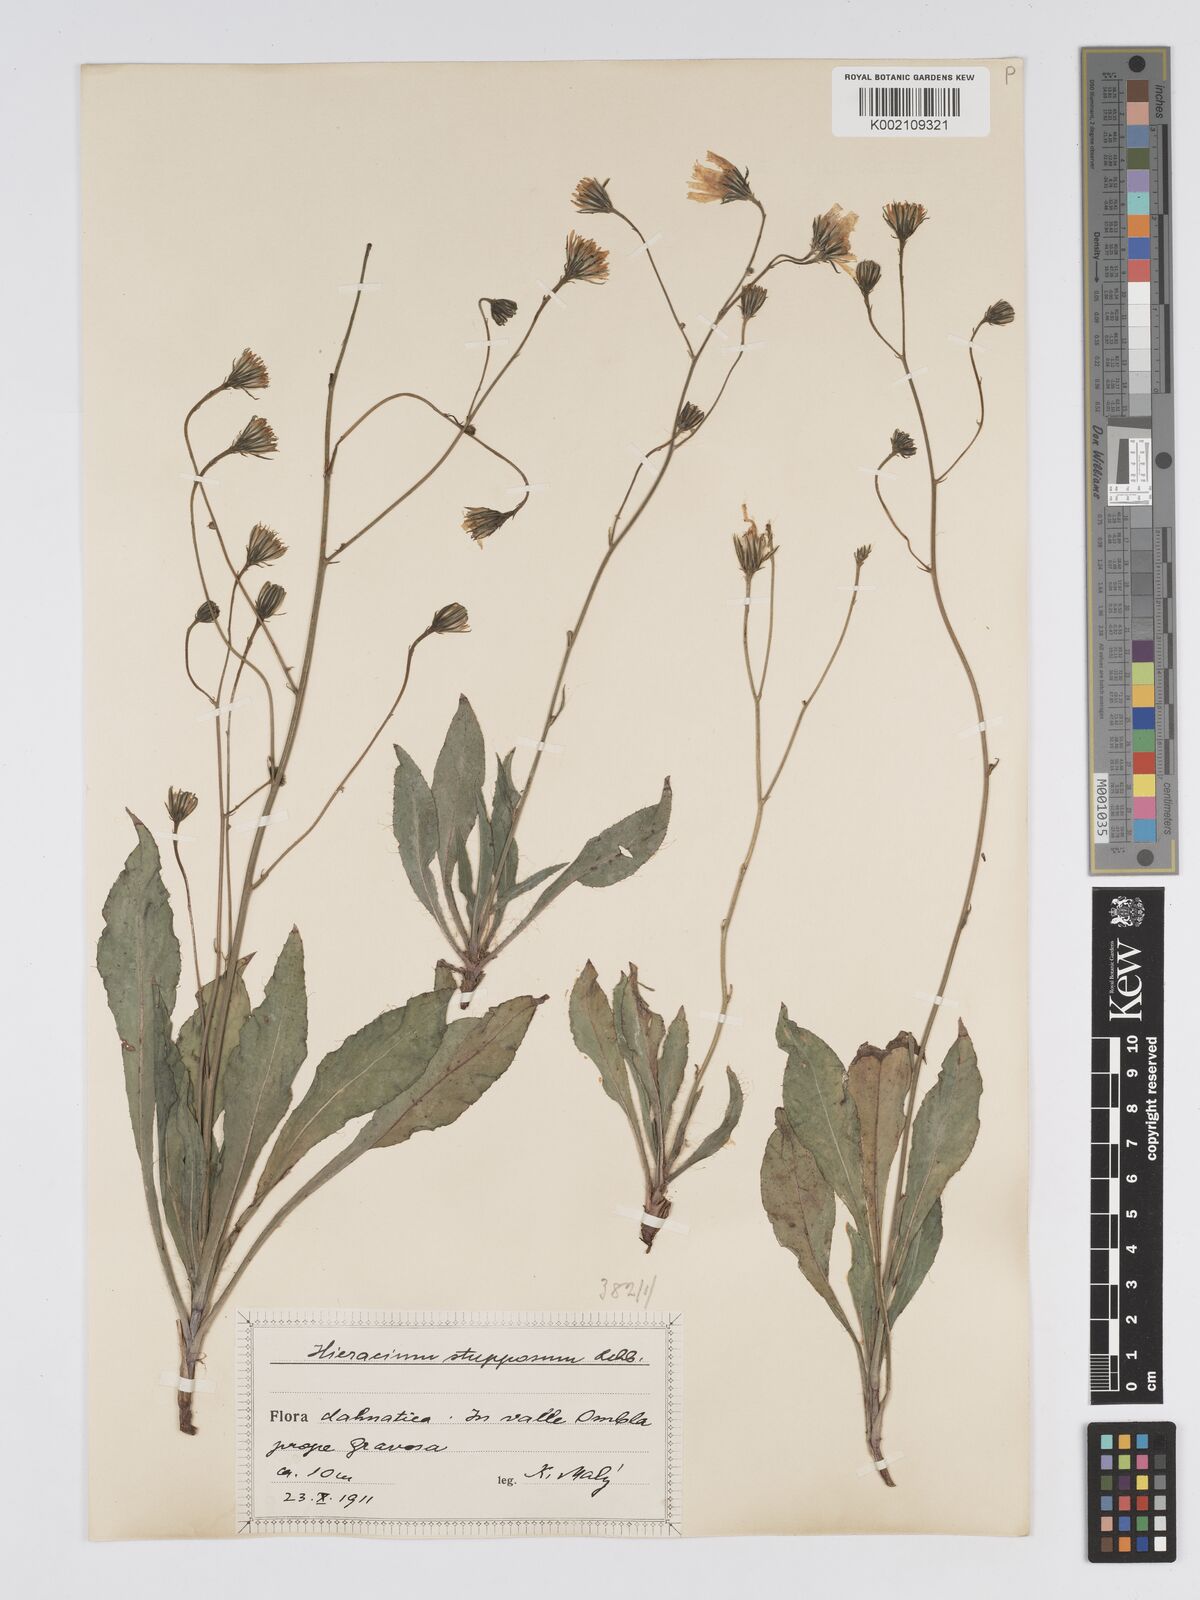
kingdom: Plantae
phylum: Tracheophyta
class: Magnoliopsida
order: Asterales
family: Asteraceae
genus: Hieracium
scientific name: Hieracium heterogynum
